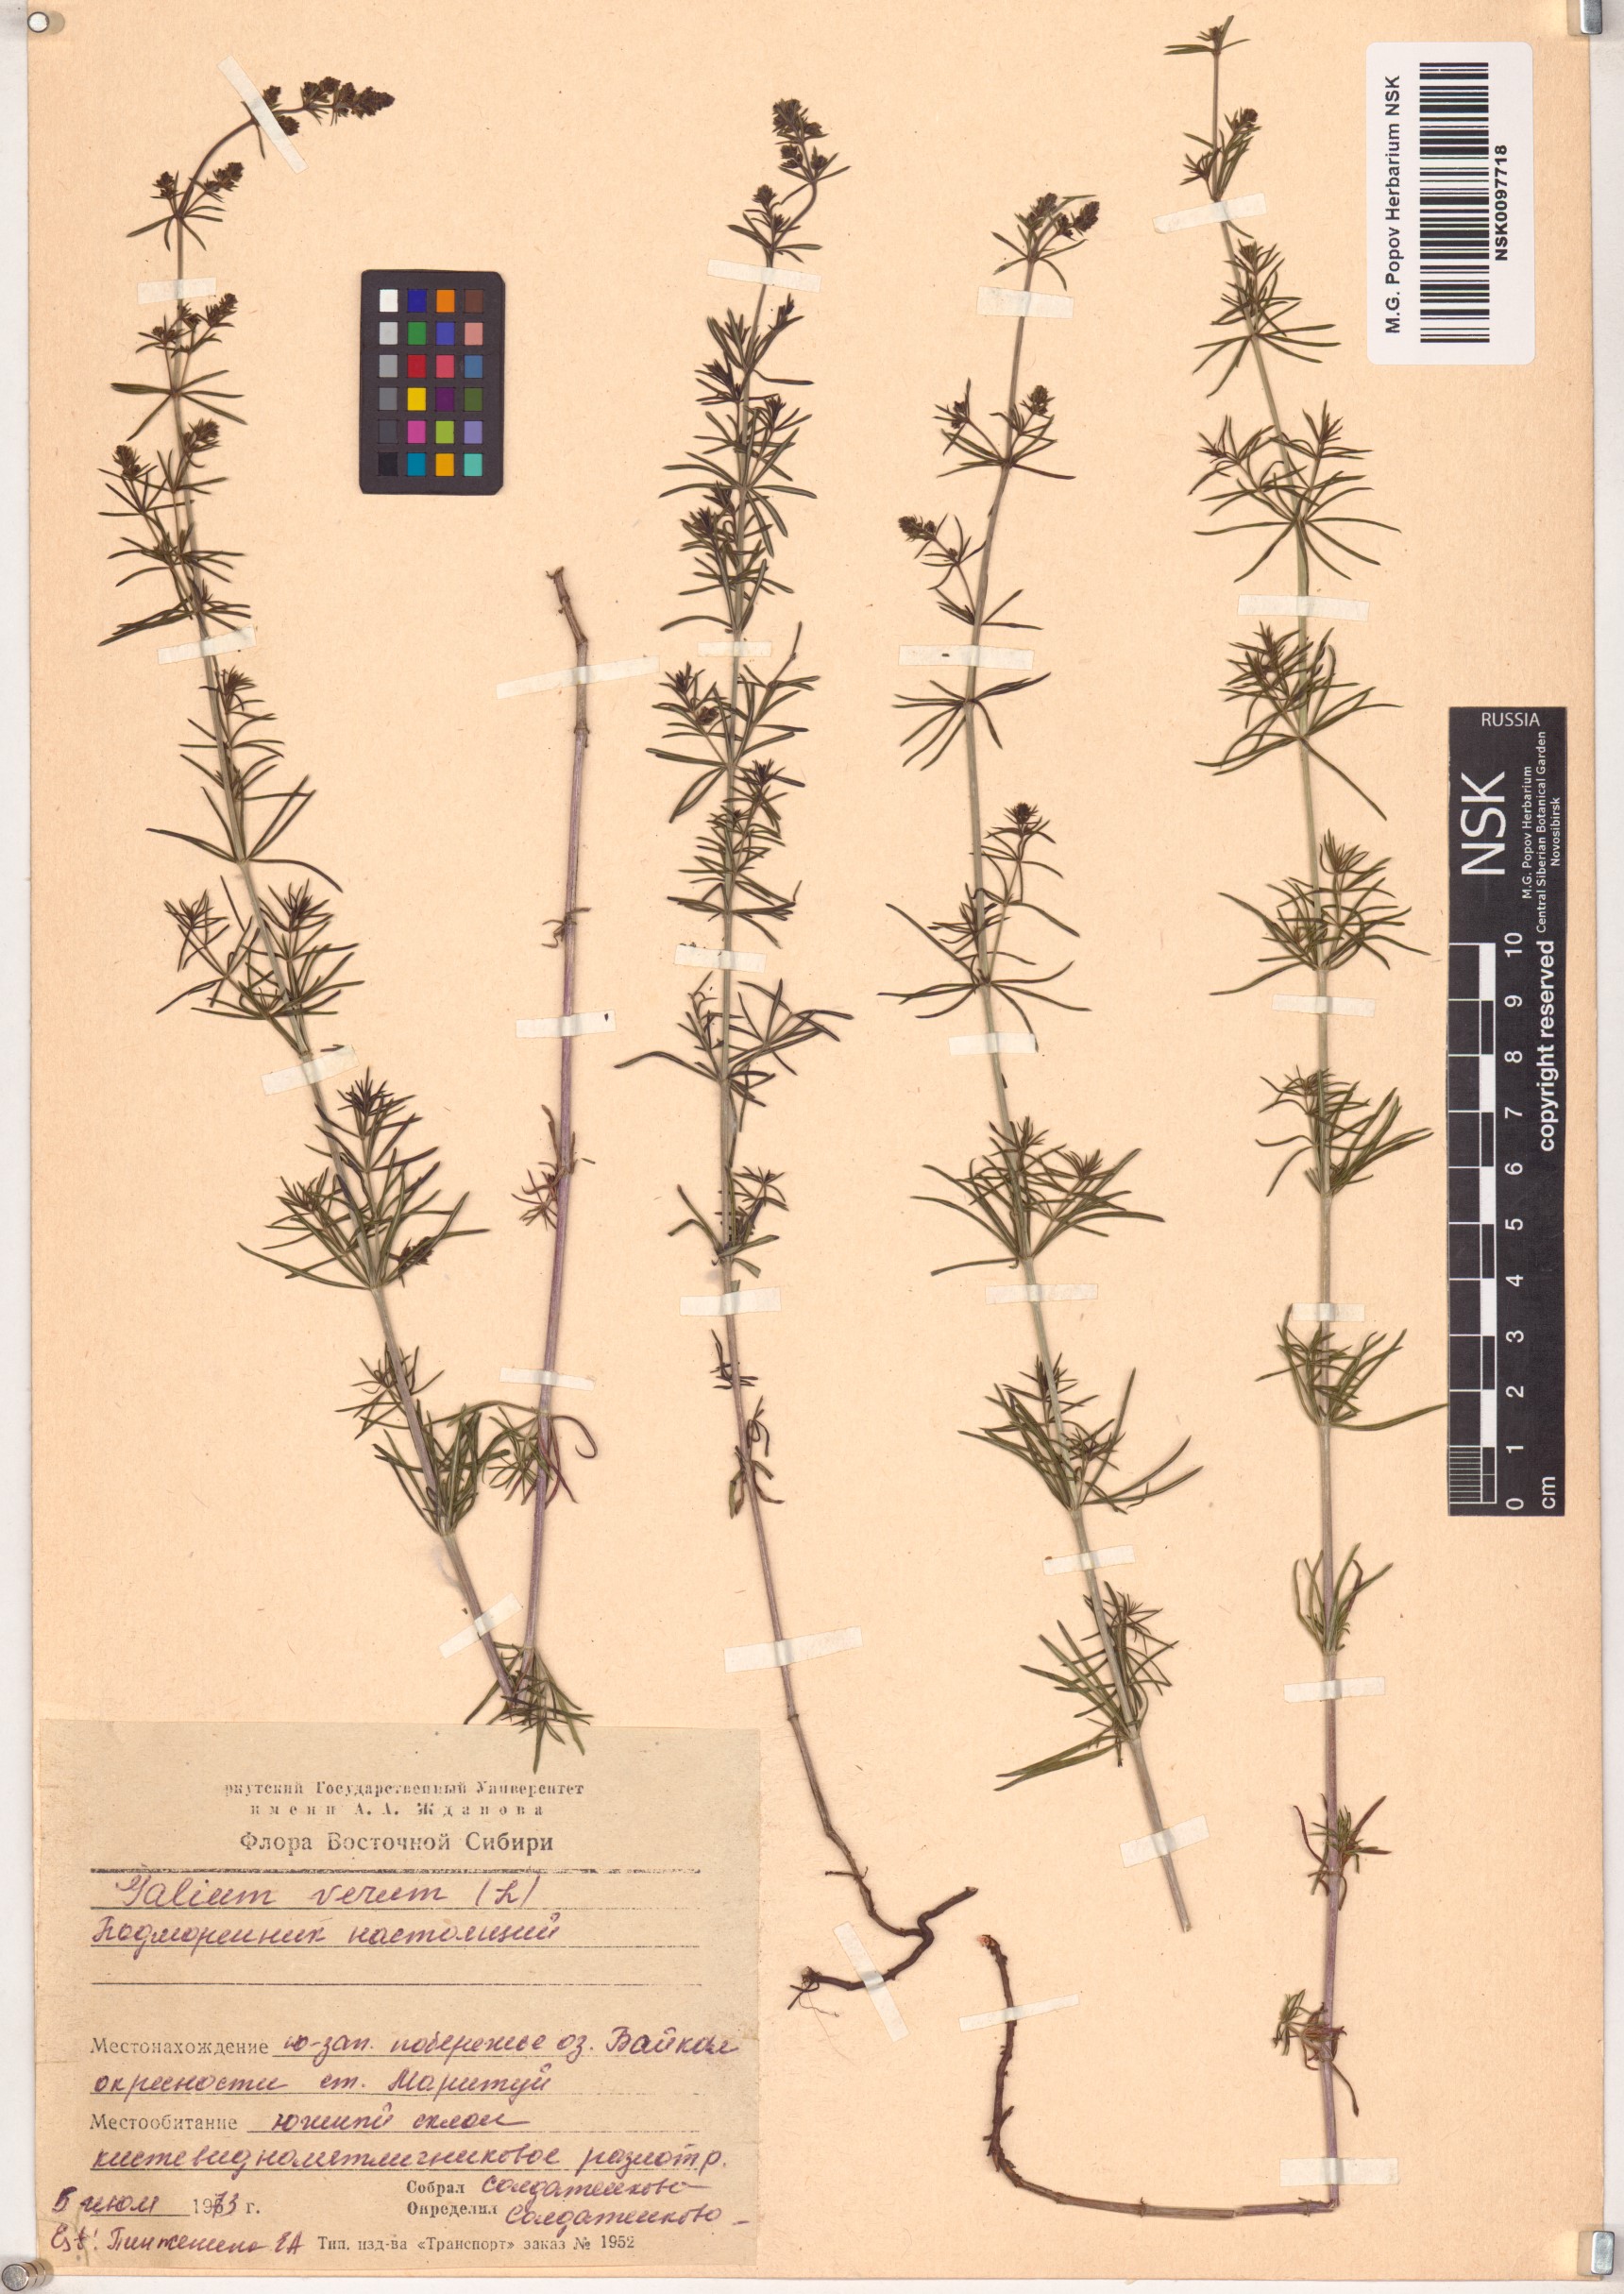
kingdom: Plantae
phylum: Tracheophyta
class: Magnoliopsida
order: Gentianales
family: Rubiaceae
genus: Galium
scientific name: Galium verum
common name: Lady's bedstraw
